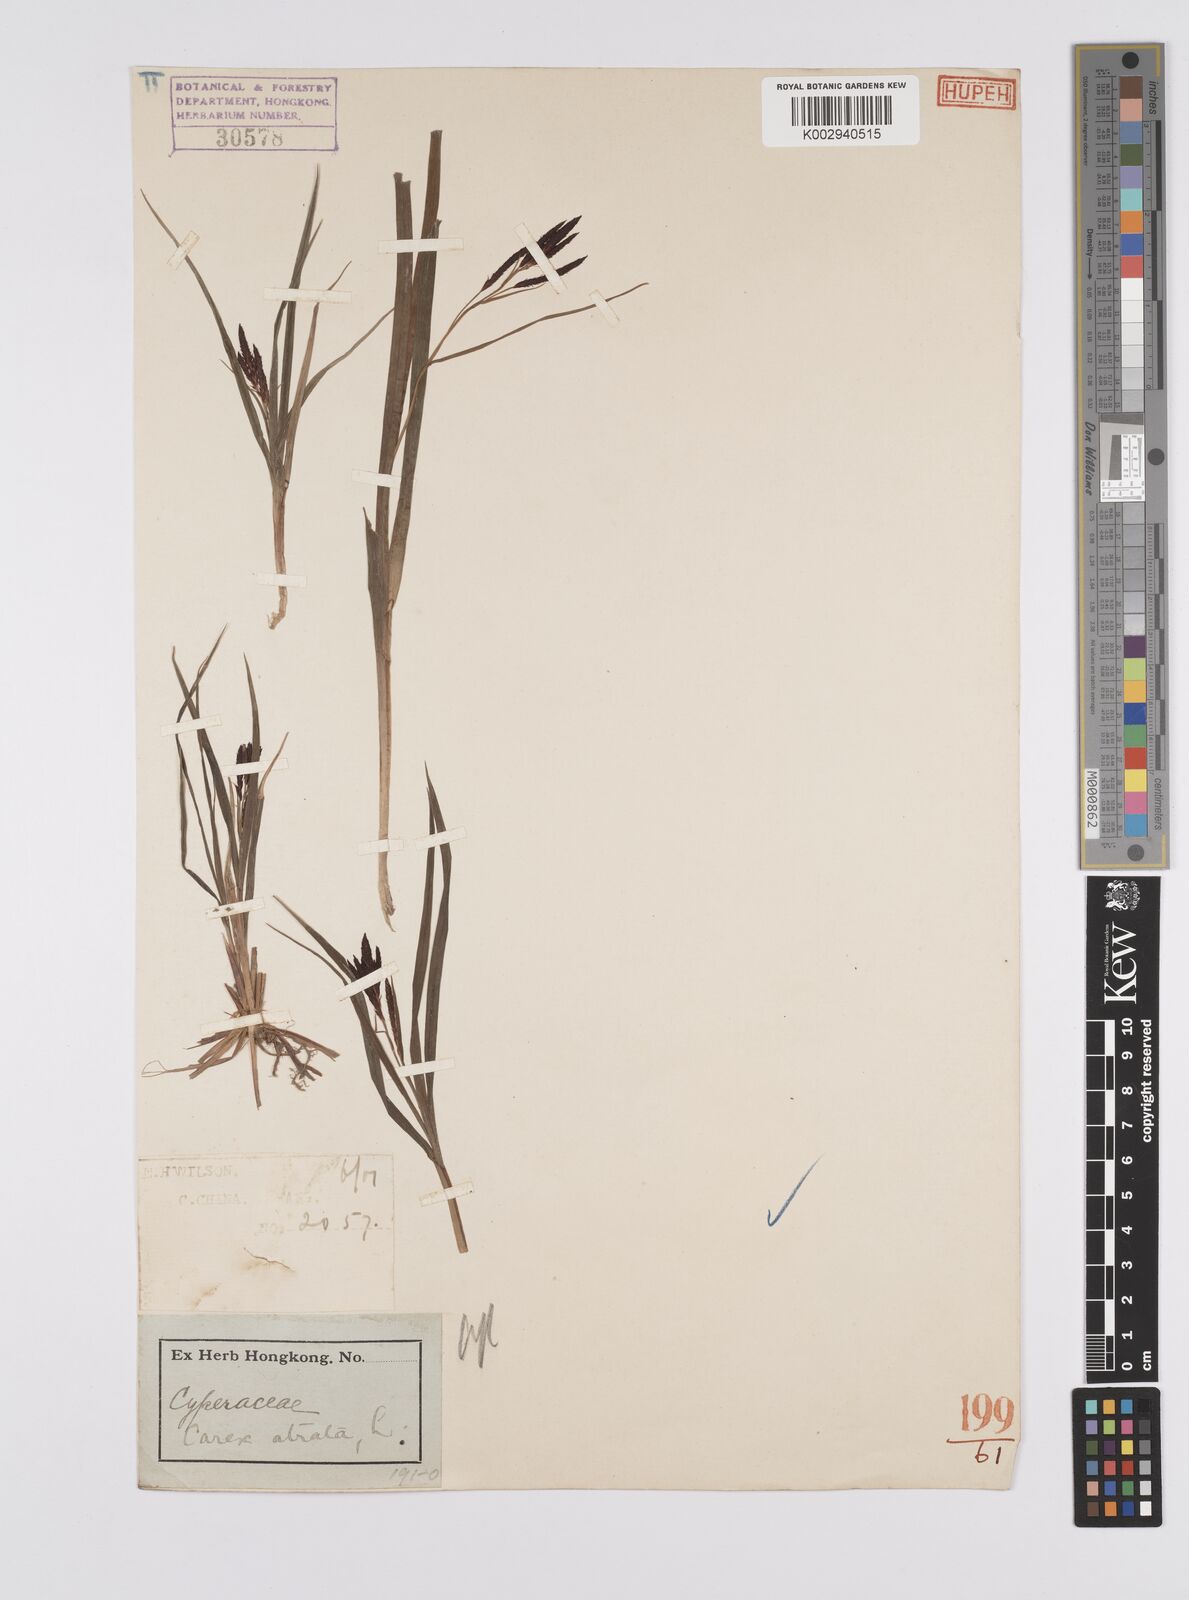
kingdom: Plantae
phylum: Tracheophyta
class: Liliopsida
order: Poales
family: Cyperaceae
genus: Carex
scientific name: Carex atrata
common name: Black alpine sedge
